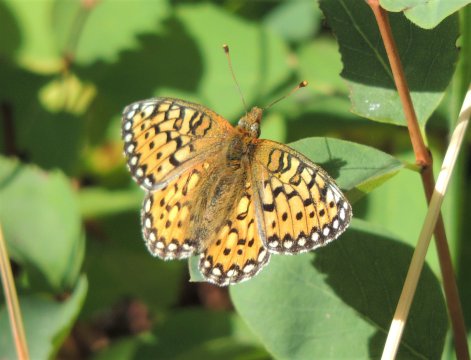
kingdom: Animalia
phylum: Arthropoda
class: Insecta
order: Lepidoptera
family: Nymphalidae
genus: Speyeria
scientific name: Speyeria mormonia
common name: Mormon Fritillary
